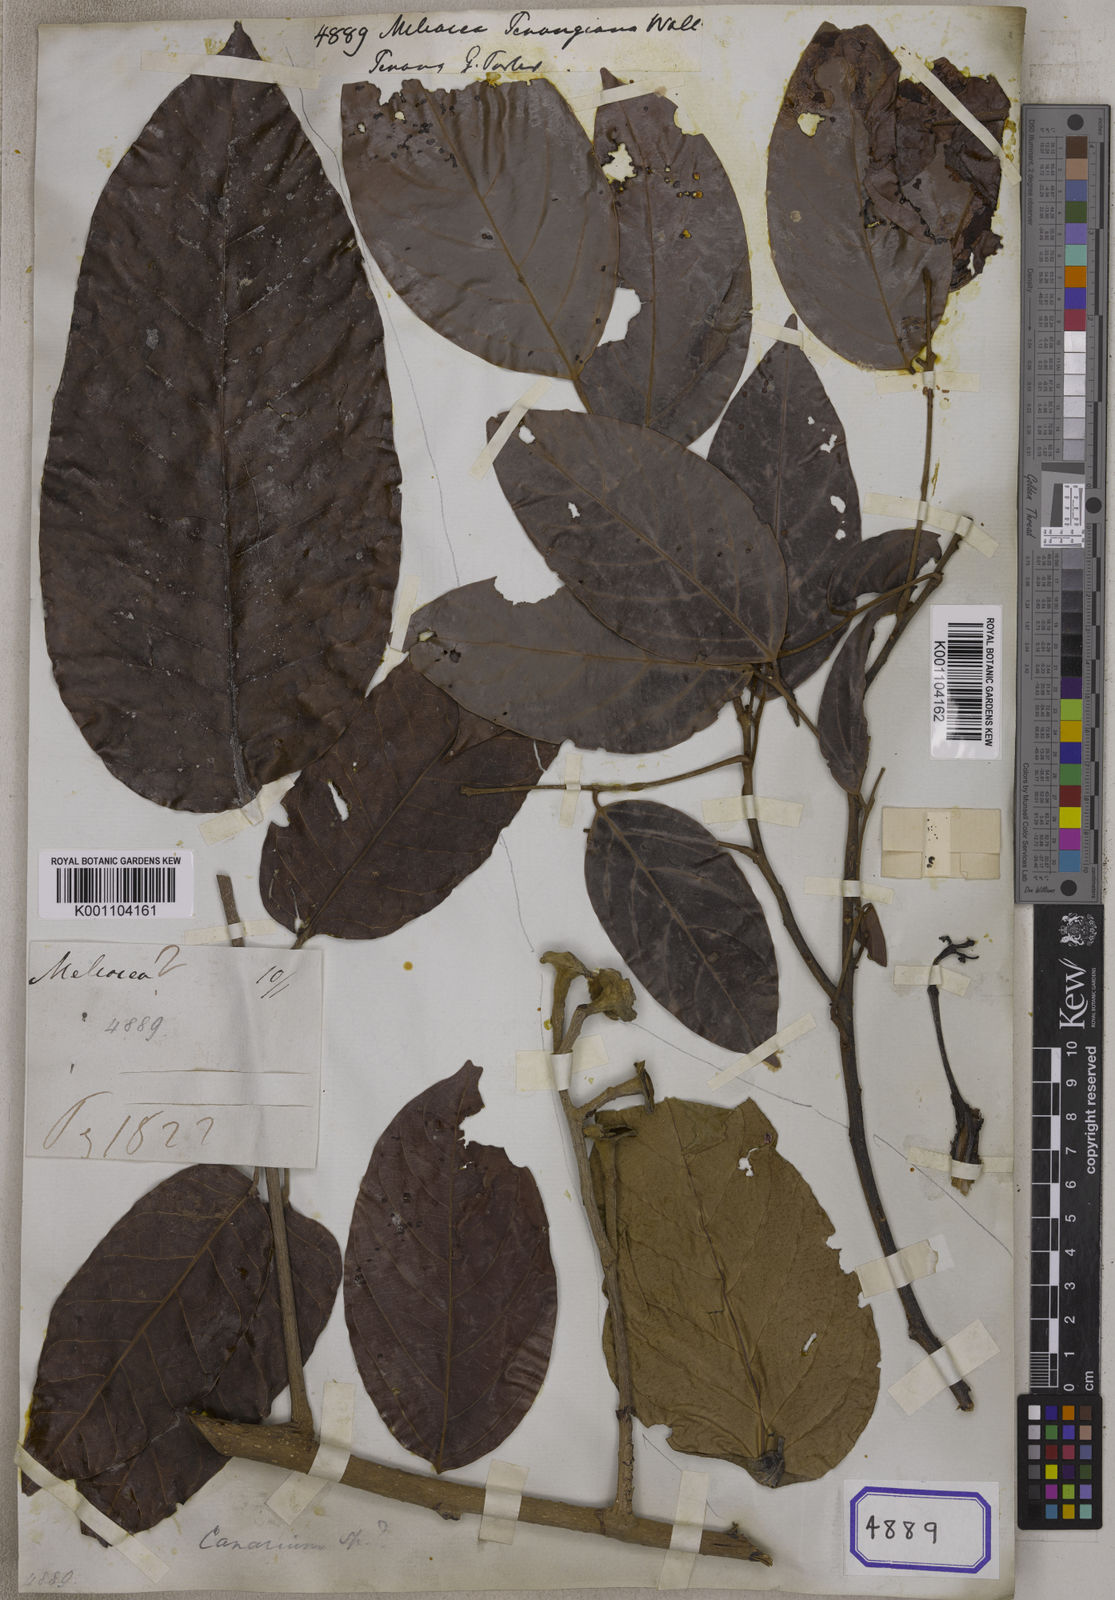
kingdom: Plantae
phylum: Tracheophyta
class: Magnoliopsida
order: Sapindales
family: Meliaceae
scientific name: Meliaceae
